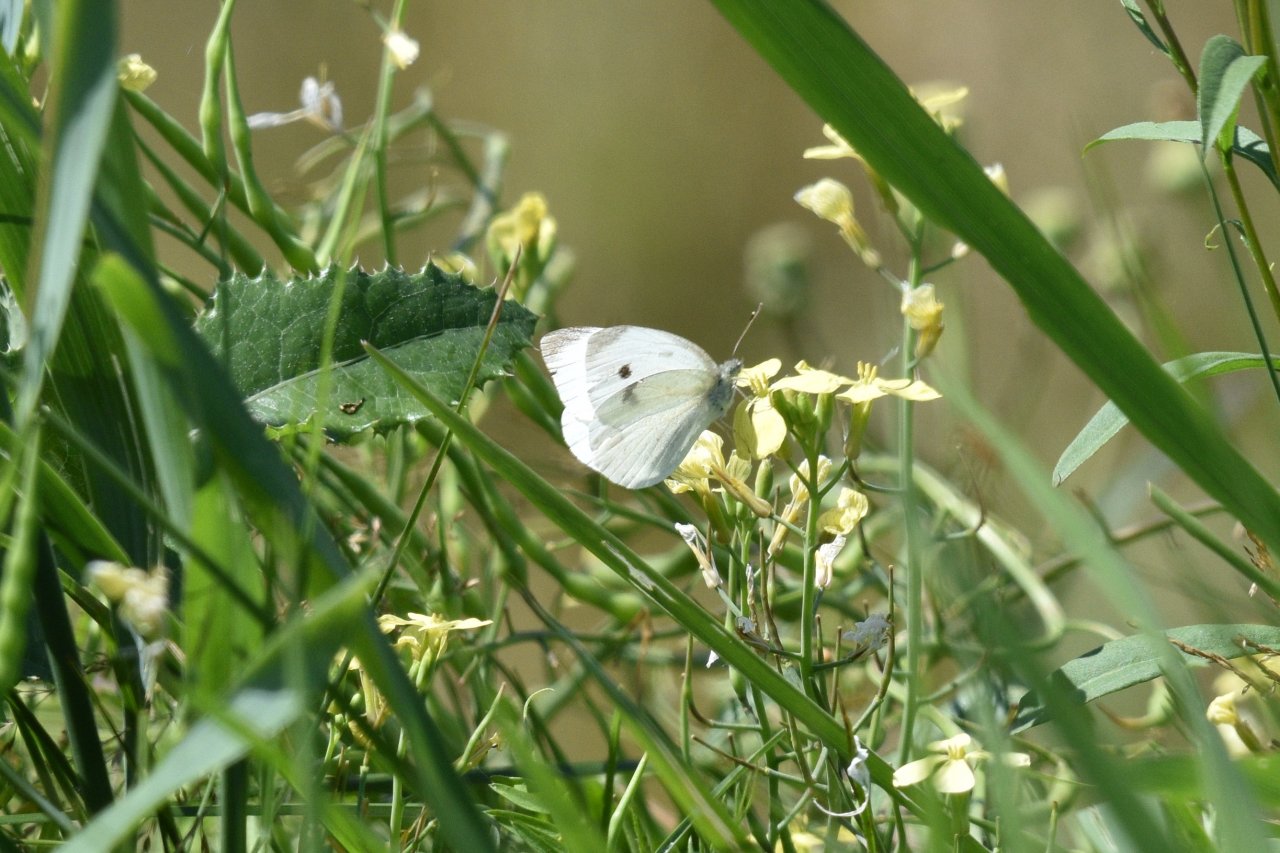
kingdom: Animalia
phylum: Arthropoda
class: Insecta
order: Lepidoptera
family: Pieridae
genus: Pieris
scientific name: Pieris rapae
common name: Cabbage White
